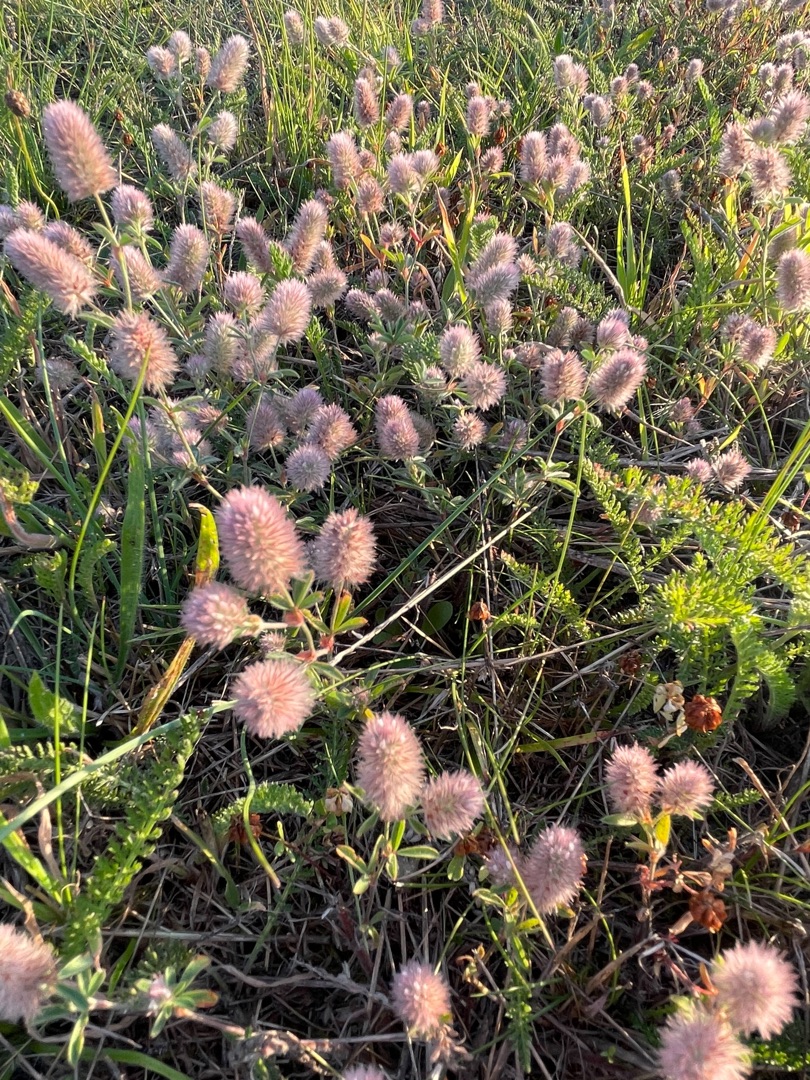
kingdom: Plantae
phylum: Tracheophyta
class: Magnoliopsida
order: Fabales
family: Fabaceae
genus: Trifolium
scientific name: Trifolium arvense
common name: Hare-kløver
